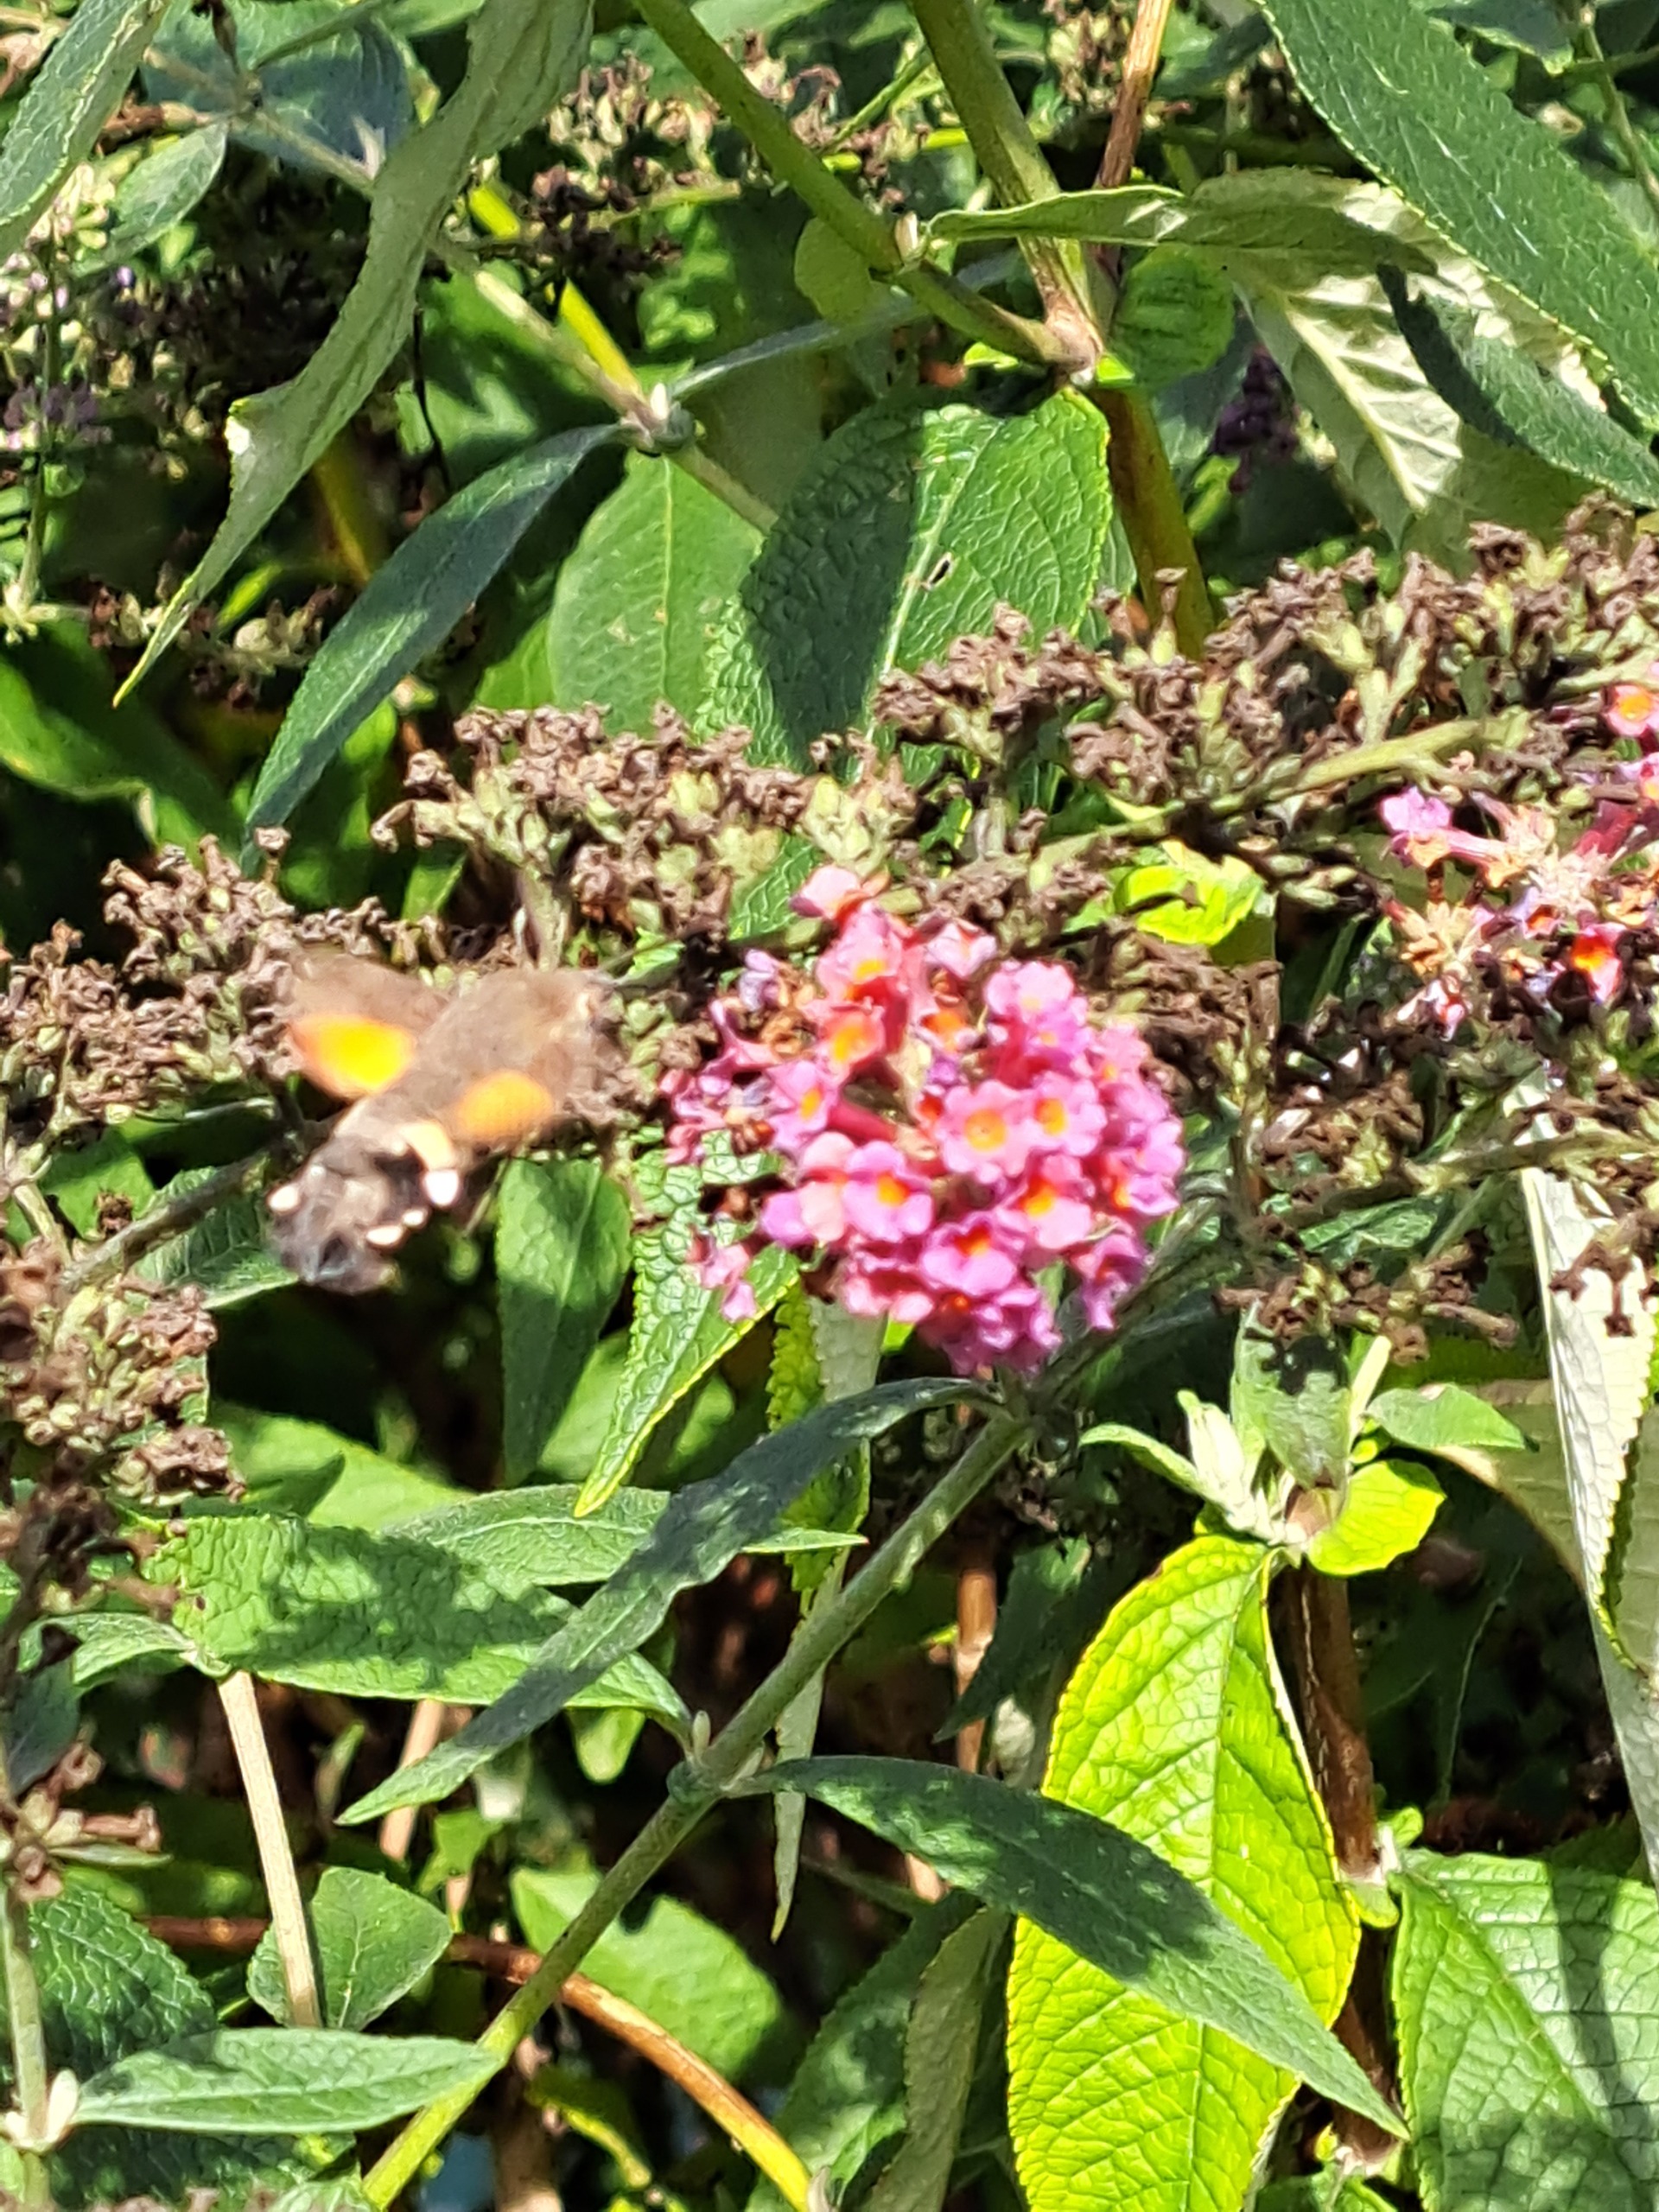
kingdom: Animalia
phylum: Arthropoda
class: Insecta
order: Lepidoptera
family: Sphingidae
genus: Macroglossum
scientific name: Macroglossum stellatarum
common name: Duehale
